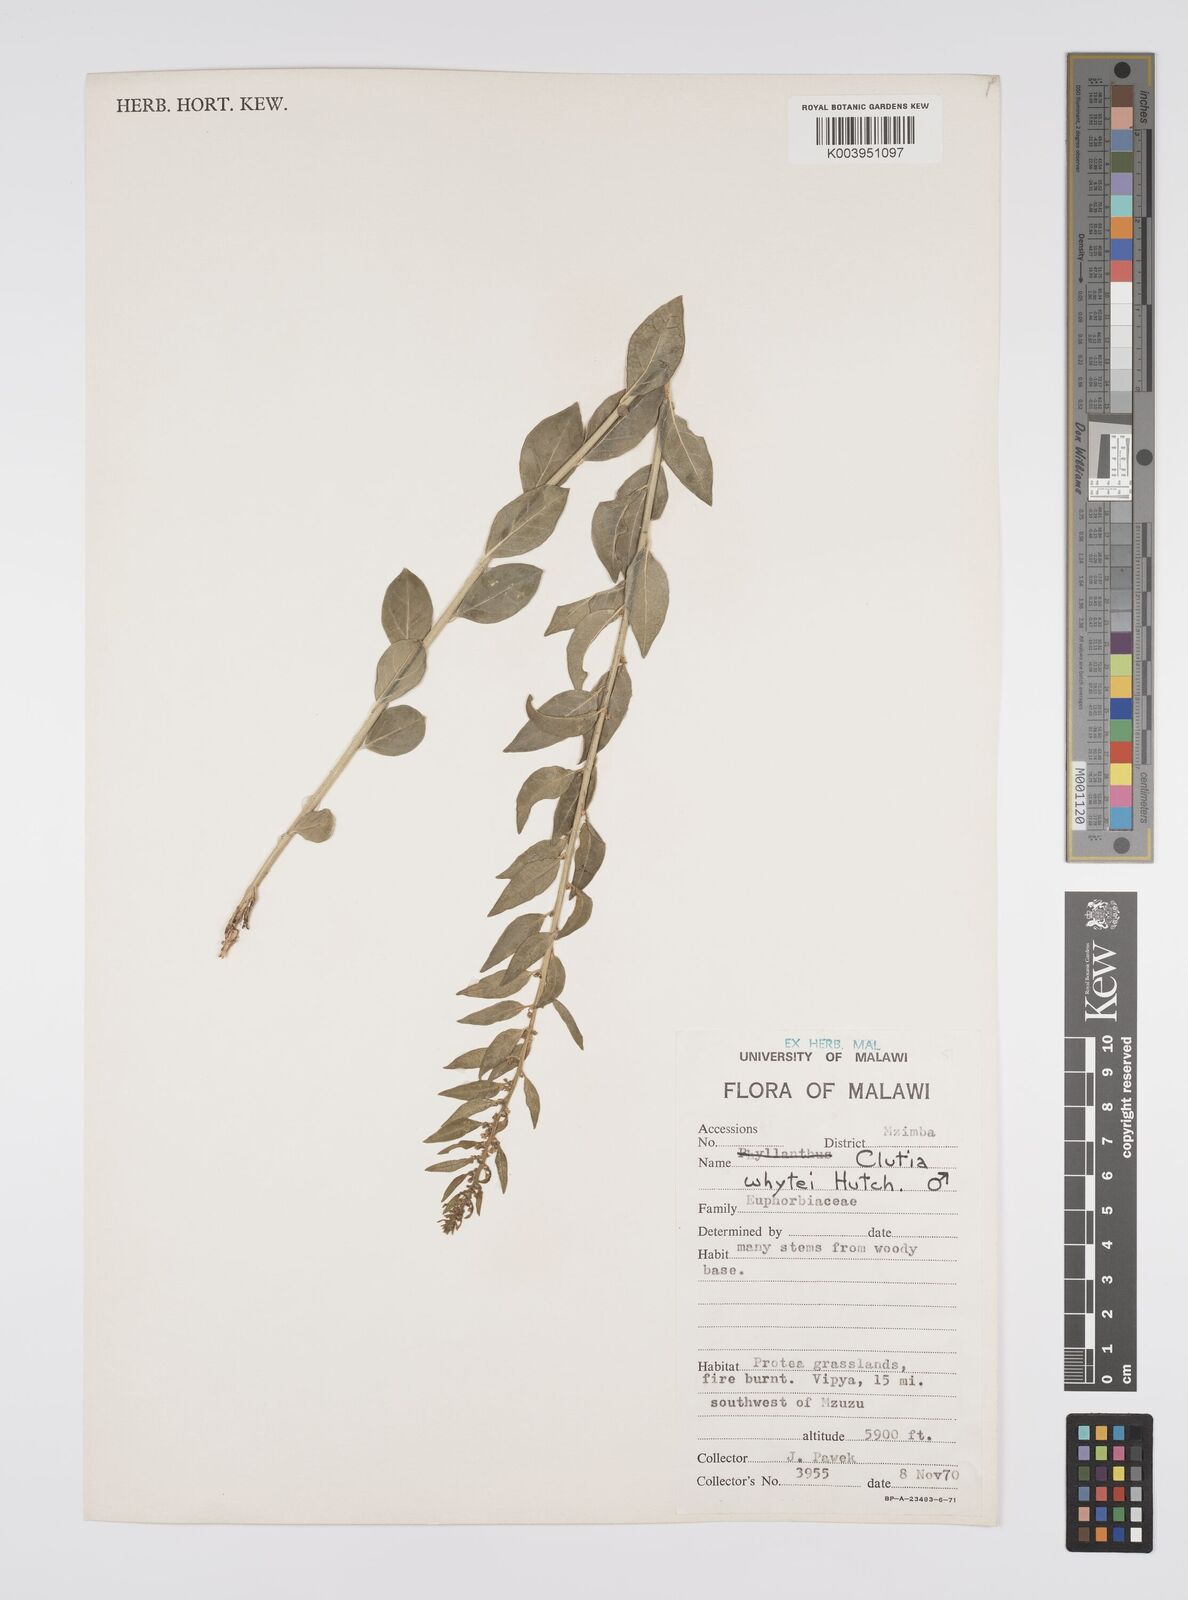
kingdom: Plantae
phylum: Tracheophyta
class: Magnoliopsida
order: Malpighiales
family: Peraceae
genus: Clutia
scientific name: Clutia whytei
